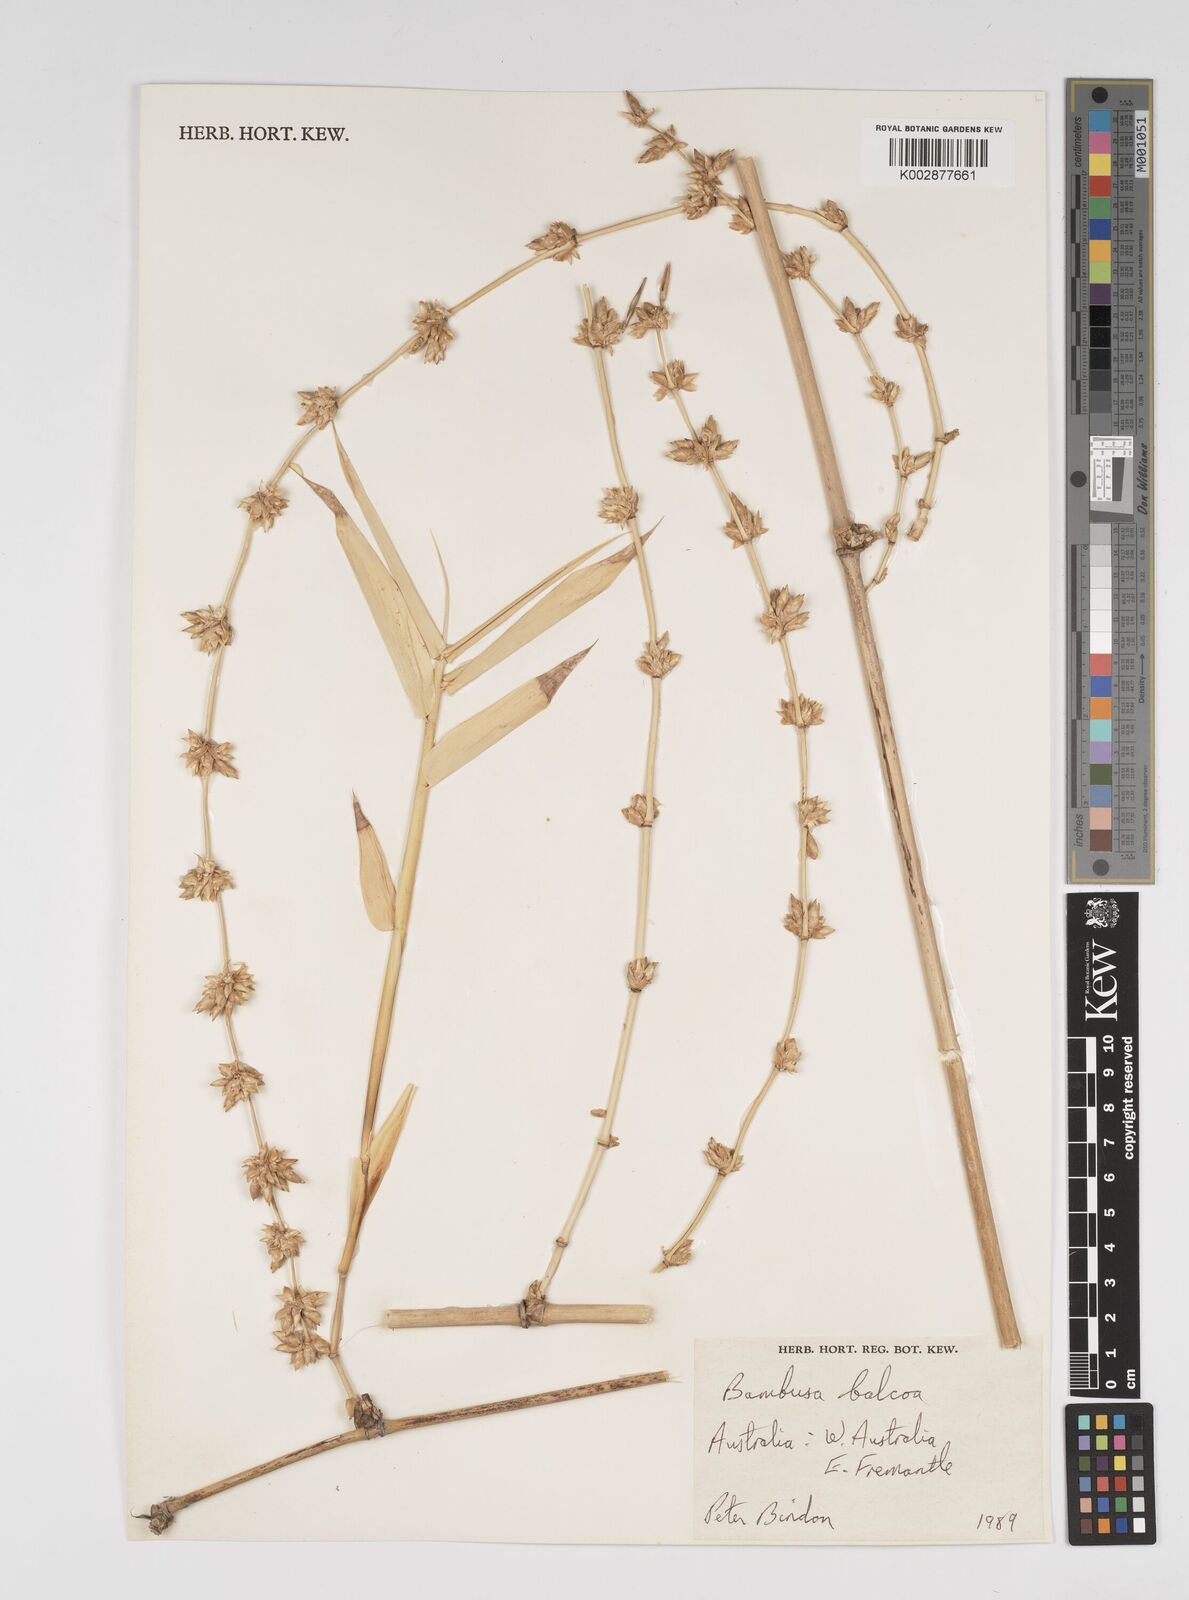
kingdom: Plantae
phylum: Tracheophyta
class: Liliopsida
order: Poales
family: Poaceae
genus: Bambusa
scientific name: Bambusa balcooa
